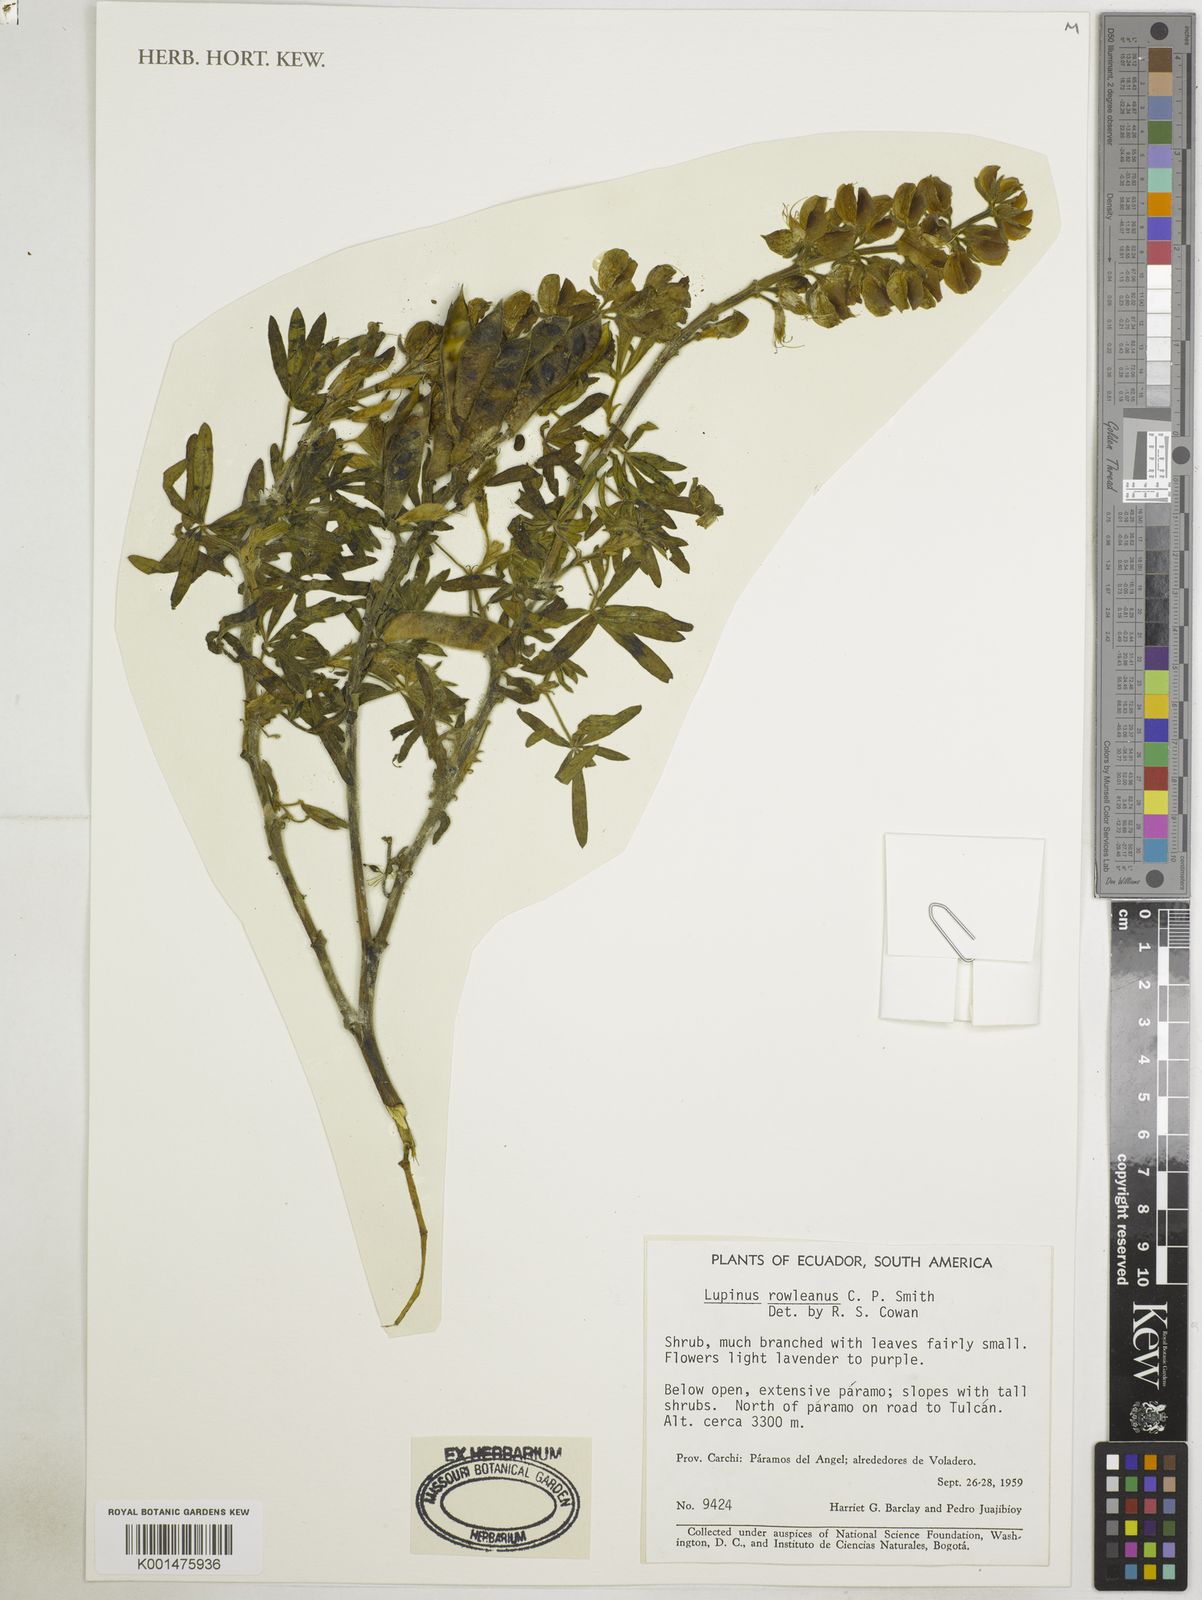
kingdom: Plantae
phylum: Tracheophyta
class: Magnoliopsida
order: Fabales
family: Fabaceae
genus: Lupinus
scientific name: Lupinus rowleeanus
